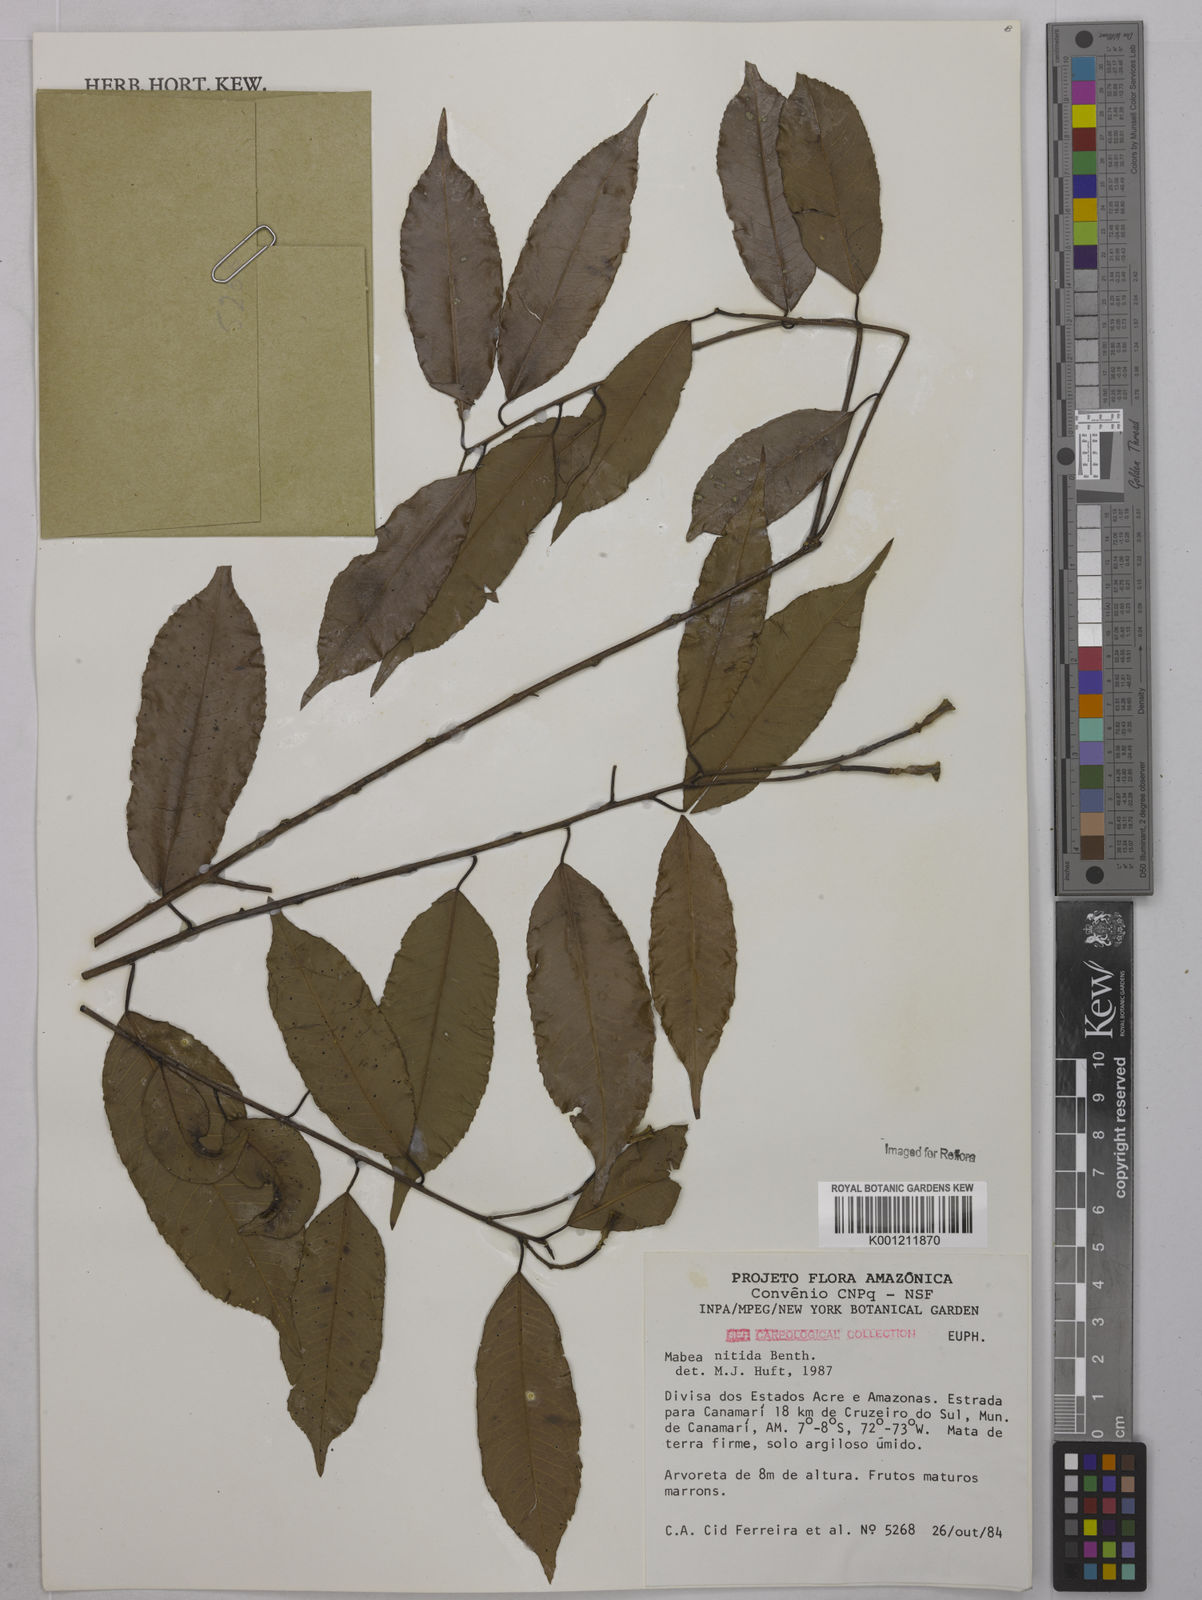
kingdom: Plantae
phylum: Tracheophyta
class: Magnoliopsida
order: Malpighiales
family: Euphorbiaceae
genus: Mabea
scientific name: Mabea nitida
